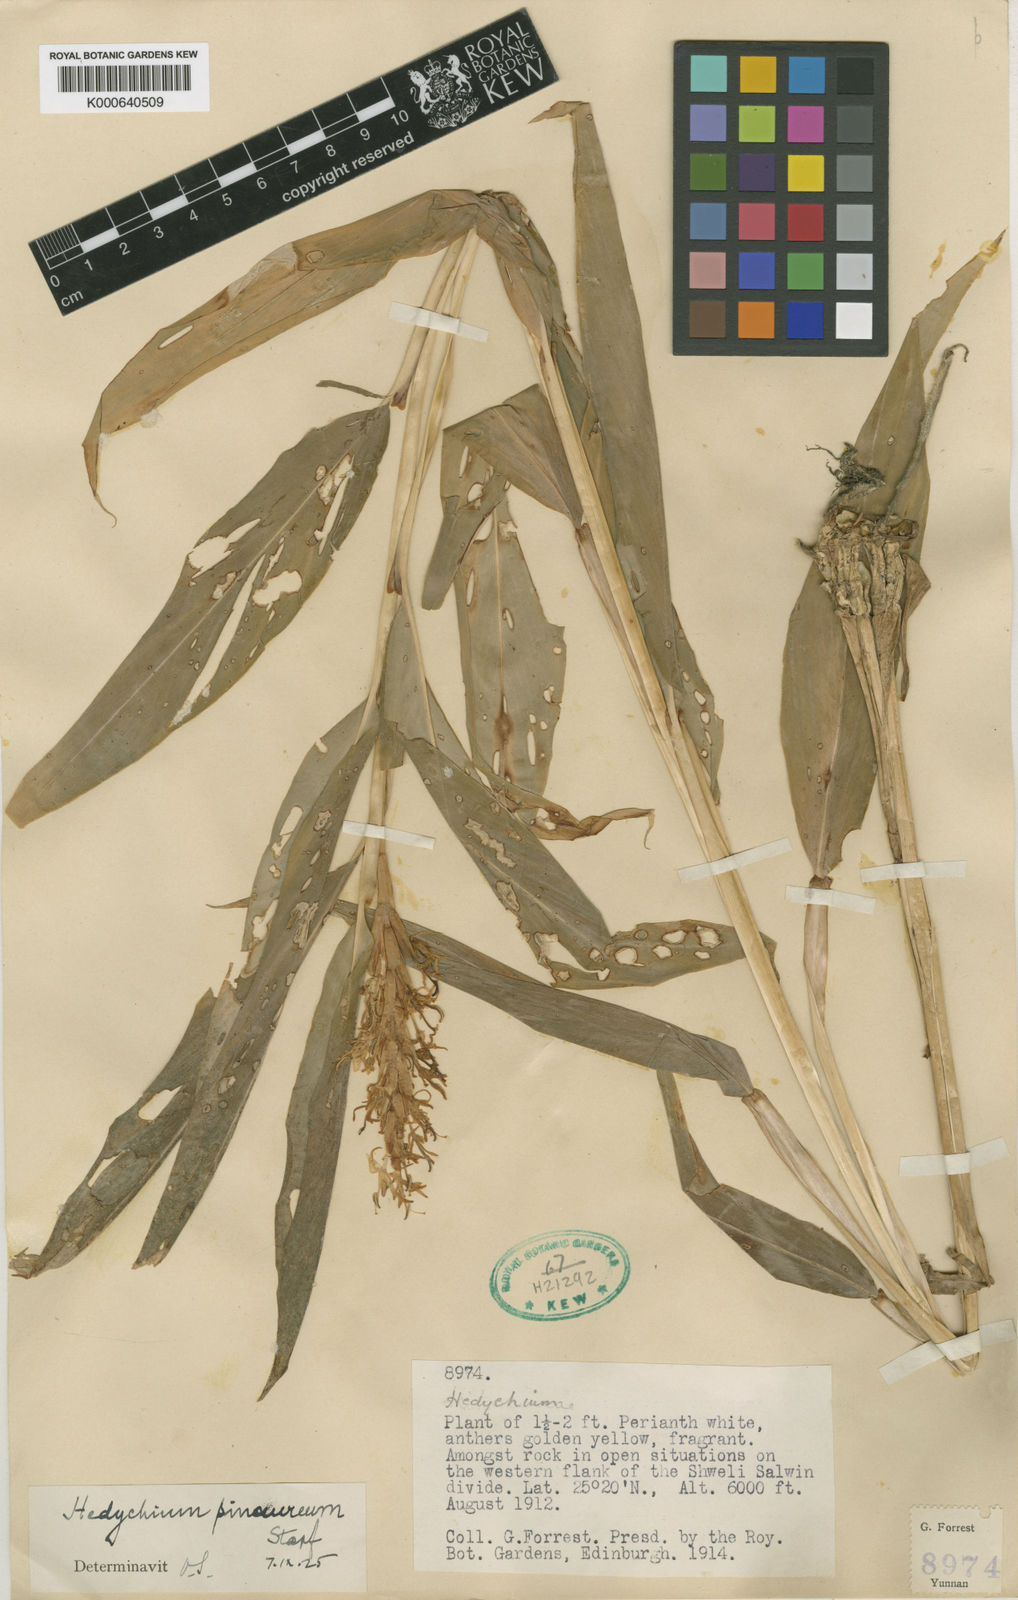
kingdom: Plantae
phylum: Tracheophyta
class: Liliopsida
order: Zingiberales
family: Zingiberaceae
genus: Hedychium
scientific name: Hedychium densiflorum
